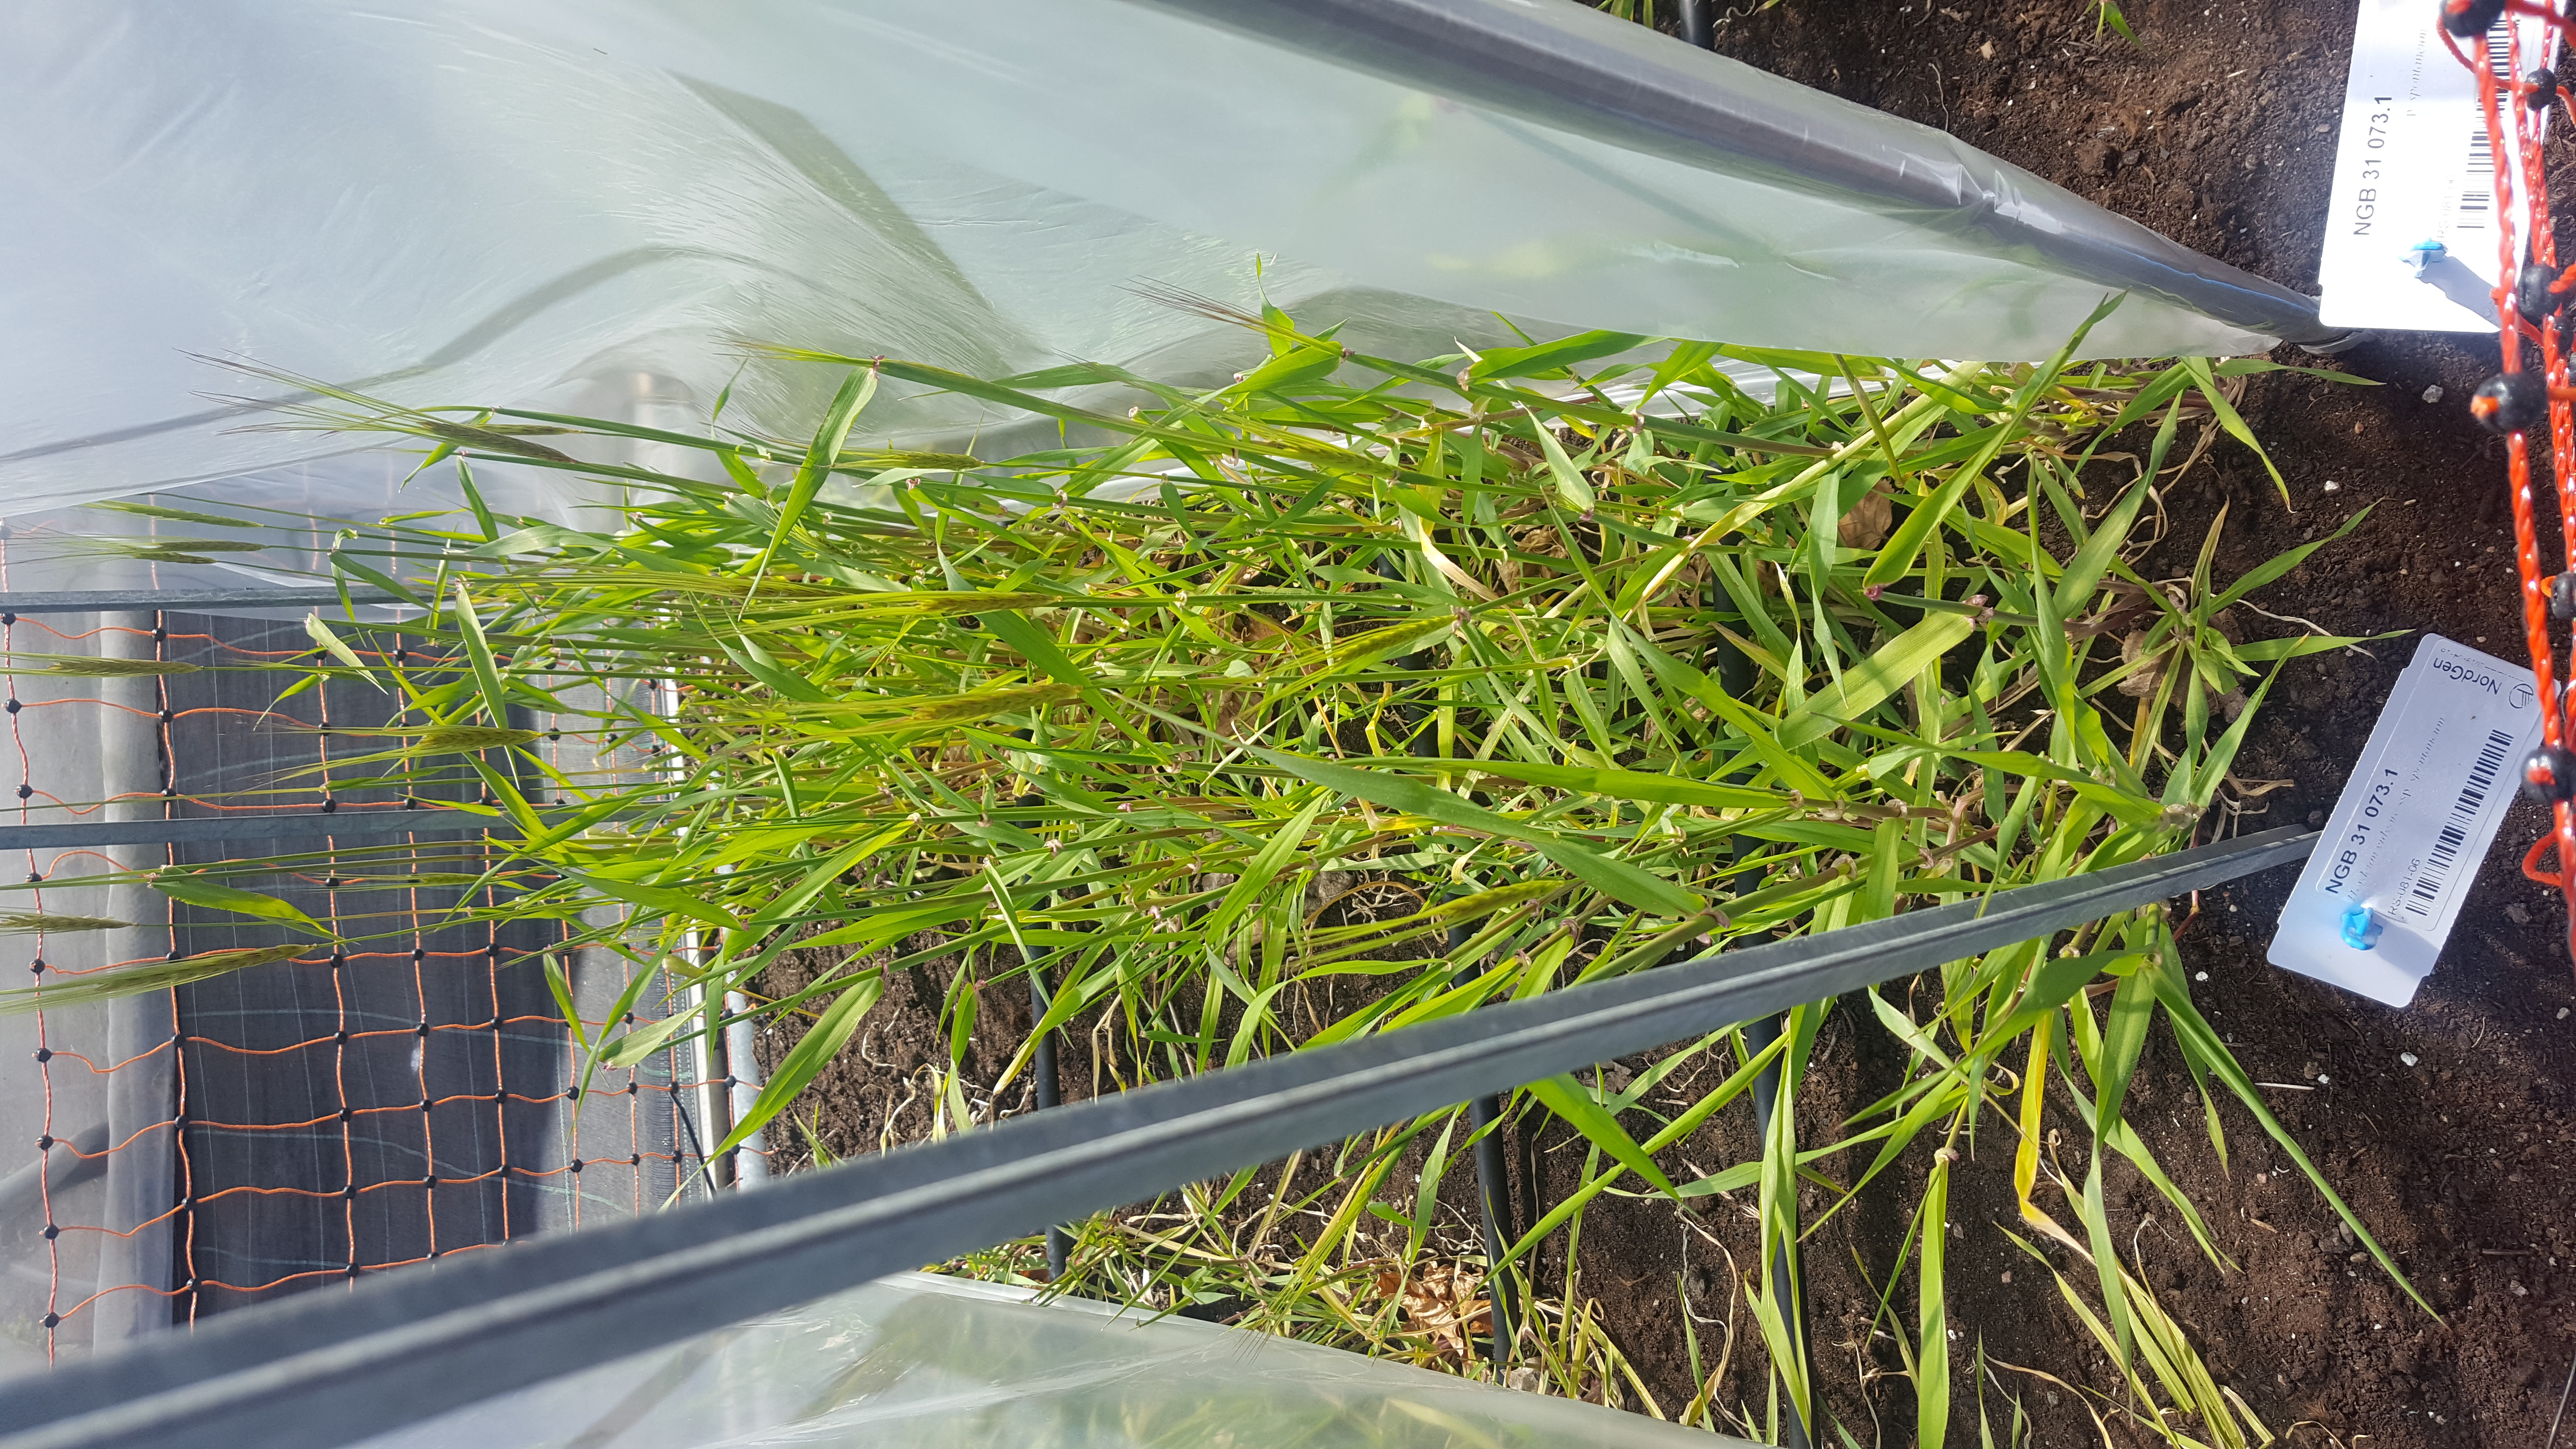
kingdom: Plantae
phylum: Tracheophyta
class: Liliopsida
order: Poales
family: Poaceae
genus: Hordeum
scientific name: Hordeum spontaneum
